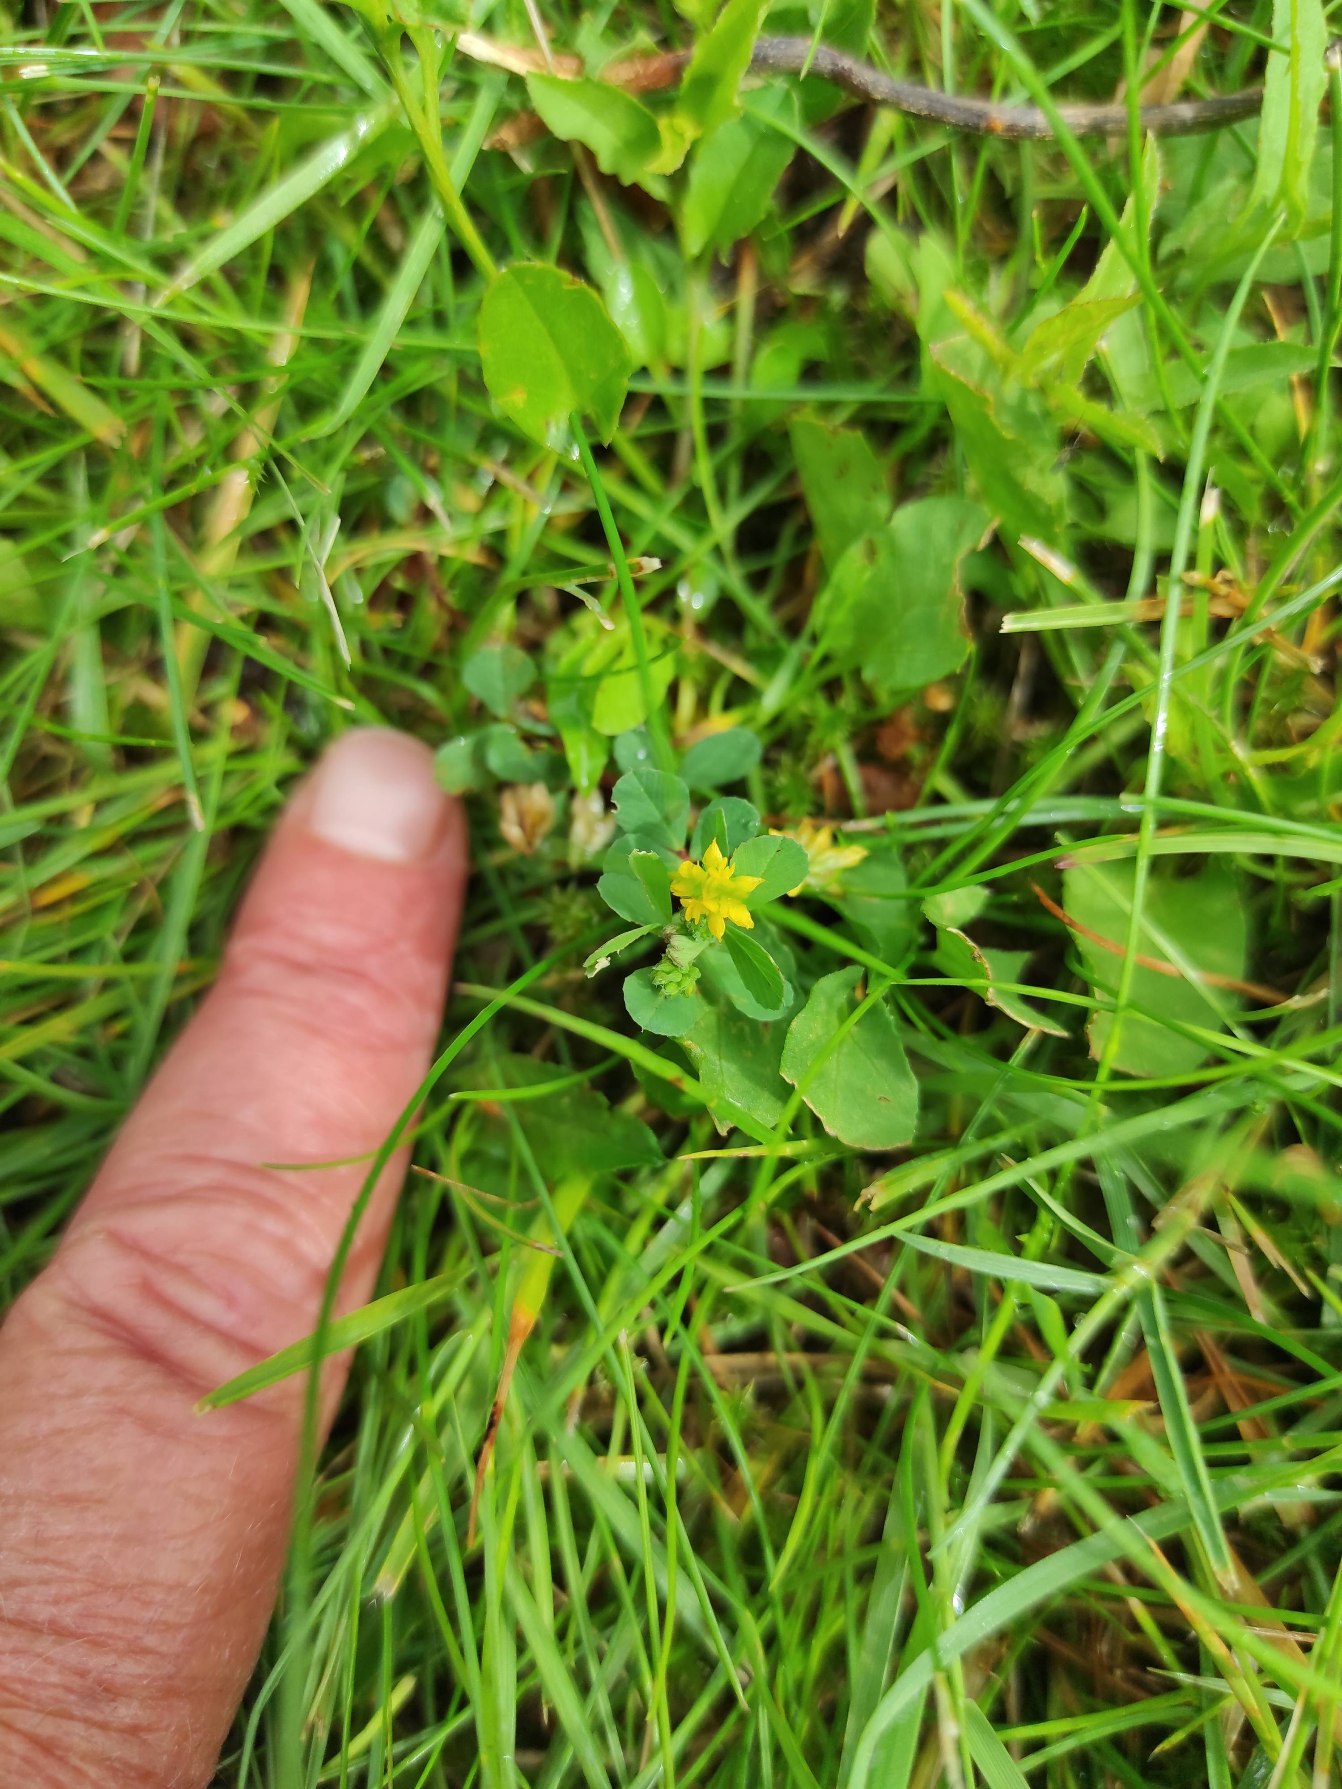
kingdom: Plantae
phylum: Tracheophyta
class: Magnoliopsida
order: Fabales
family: Fabaceae
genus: Trifolium
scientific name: Trifolium dubium
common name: Fin kløver
